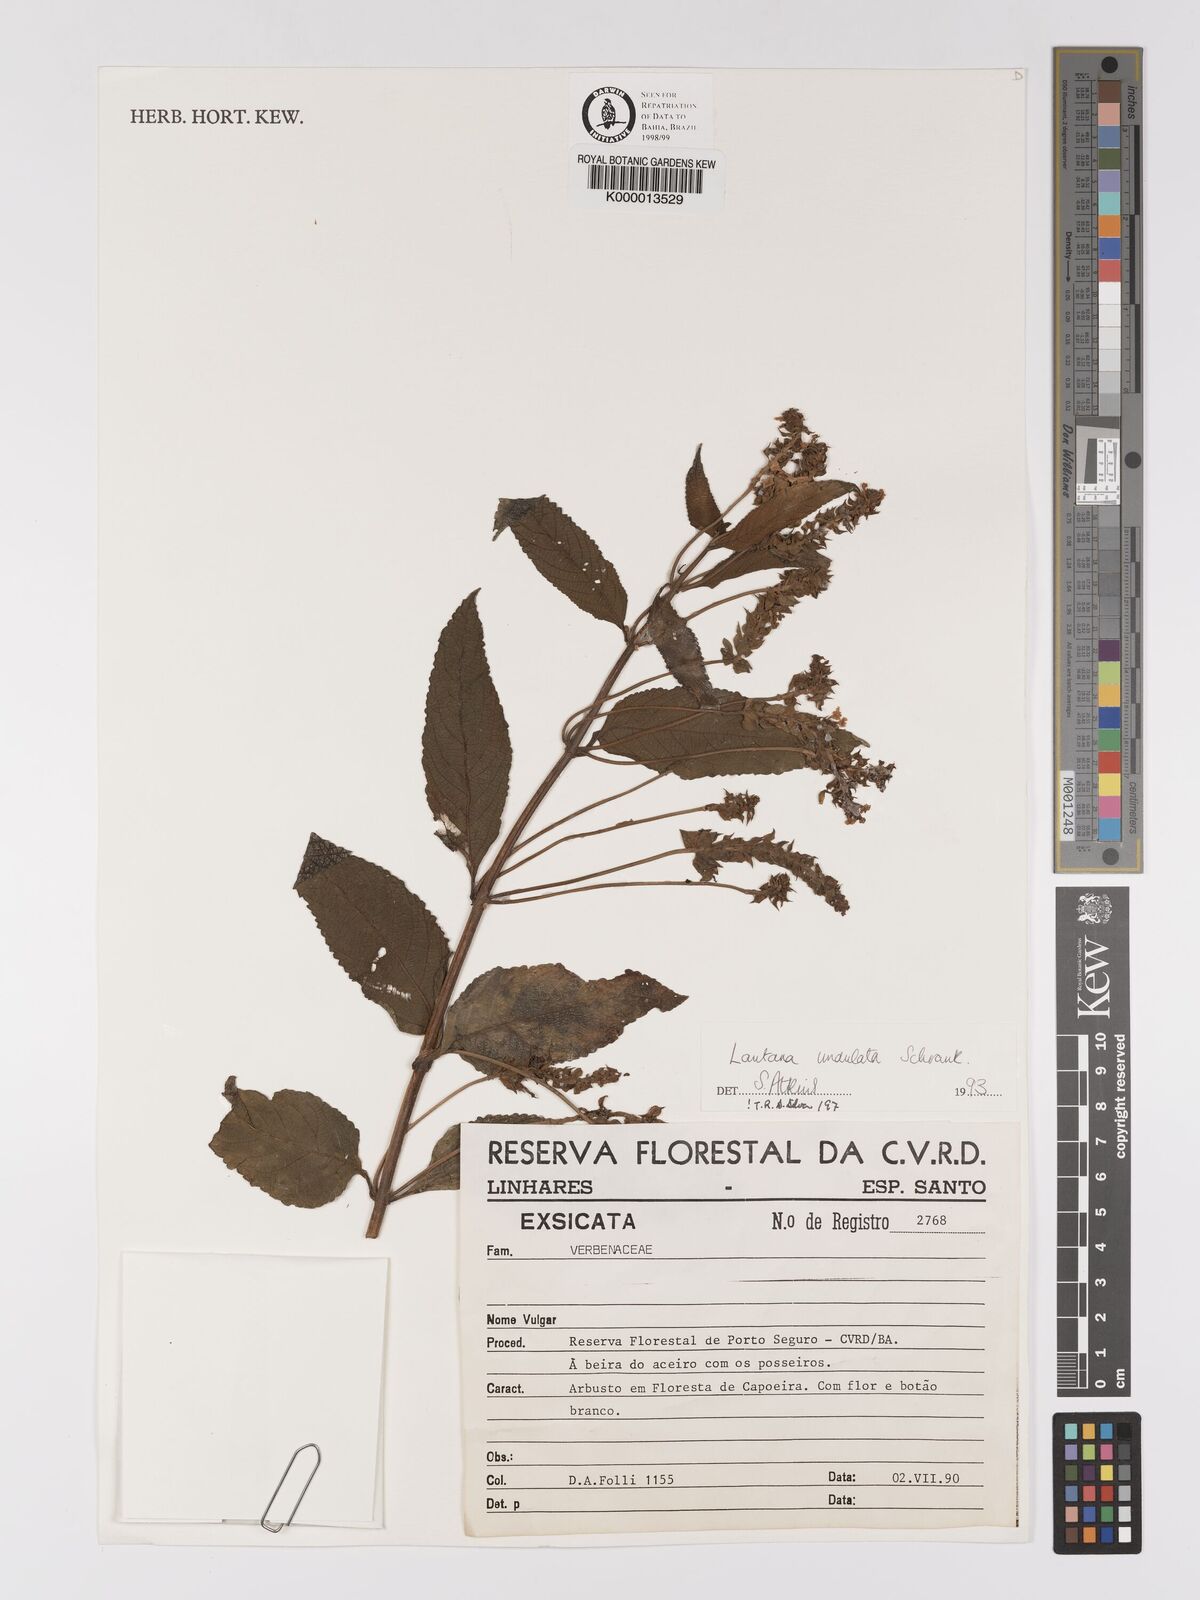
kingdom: Plantae
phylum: Tracheophyta
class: Magnoliopsida
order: Lamiales
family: Verbenaceae
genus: Lantana
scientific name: Lantana undulata
